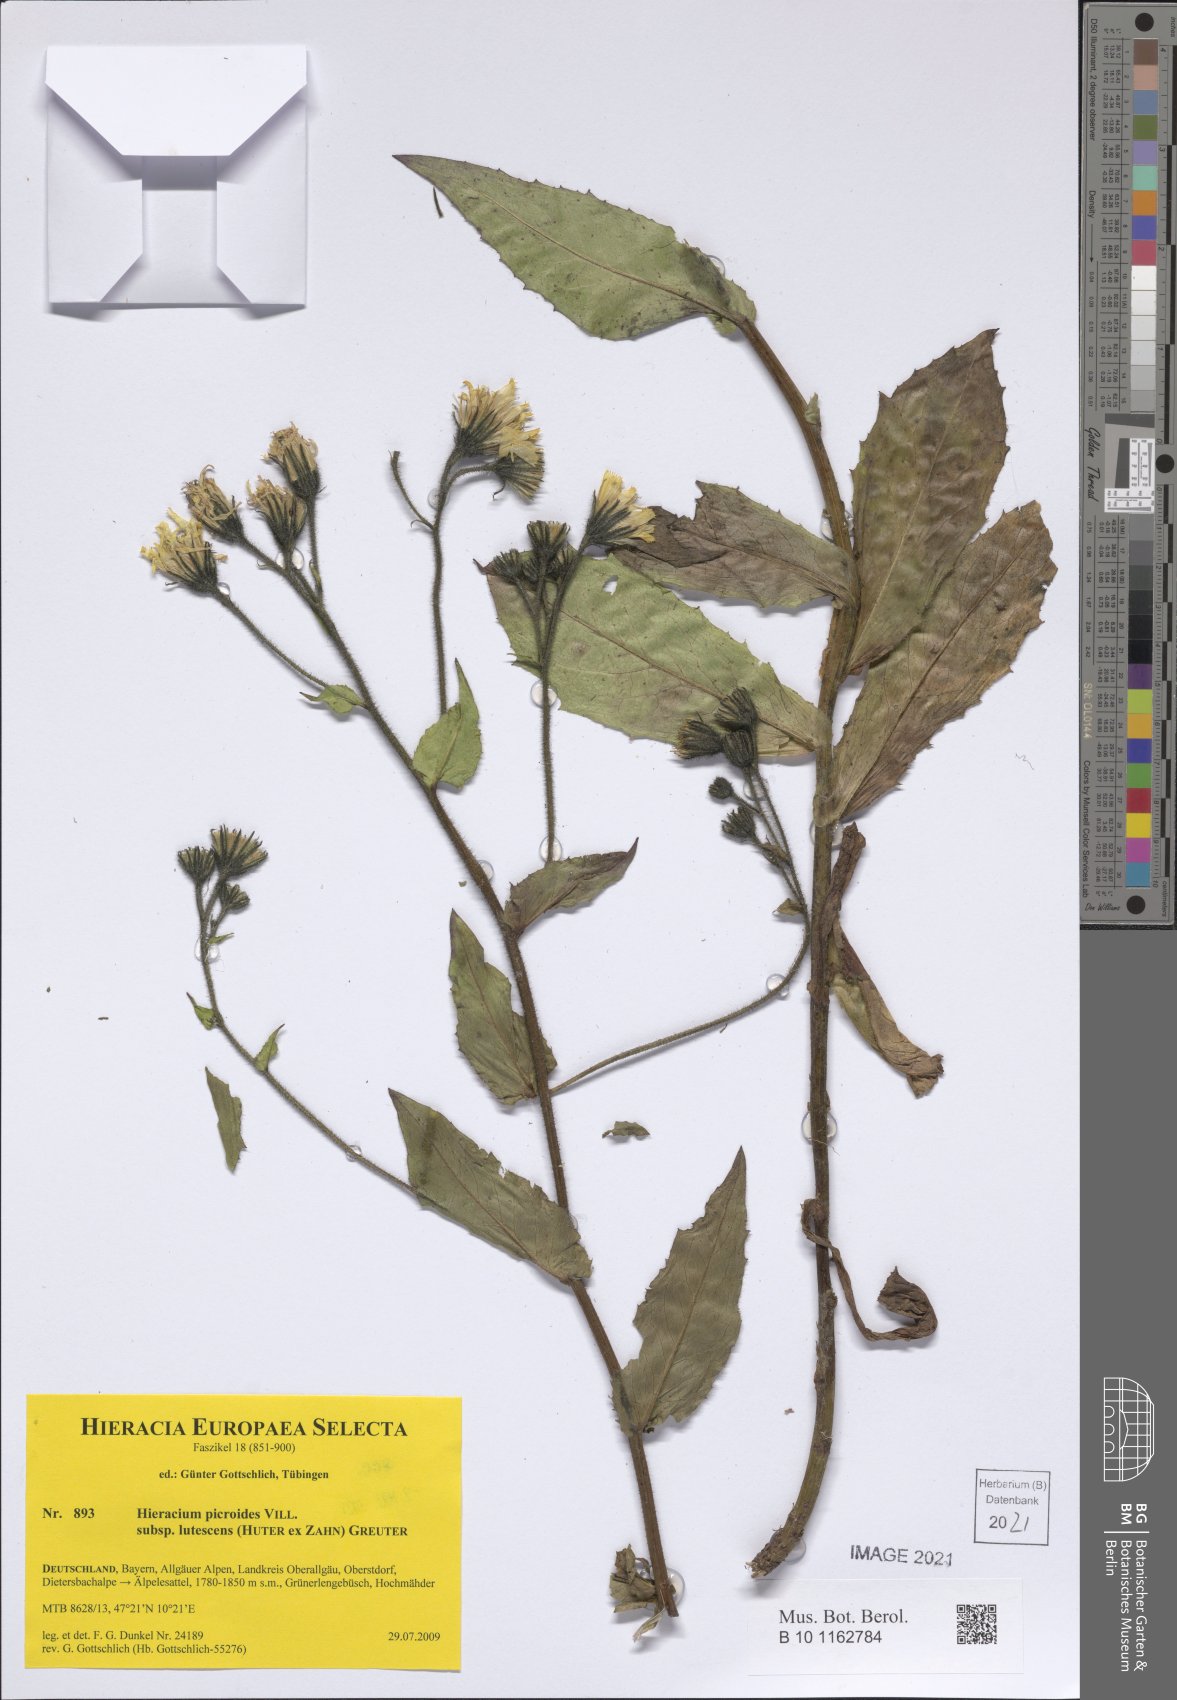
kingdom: Plantae
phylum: Tracheophyta
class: Magnoliopsida
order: Asterales
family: Asteraceae
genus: Hieracium
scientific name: Hieracium picroides
